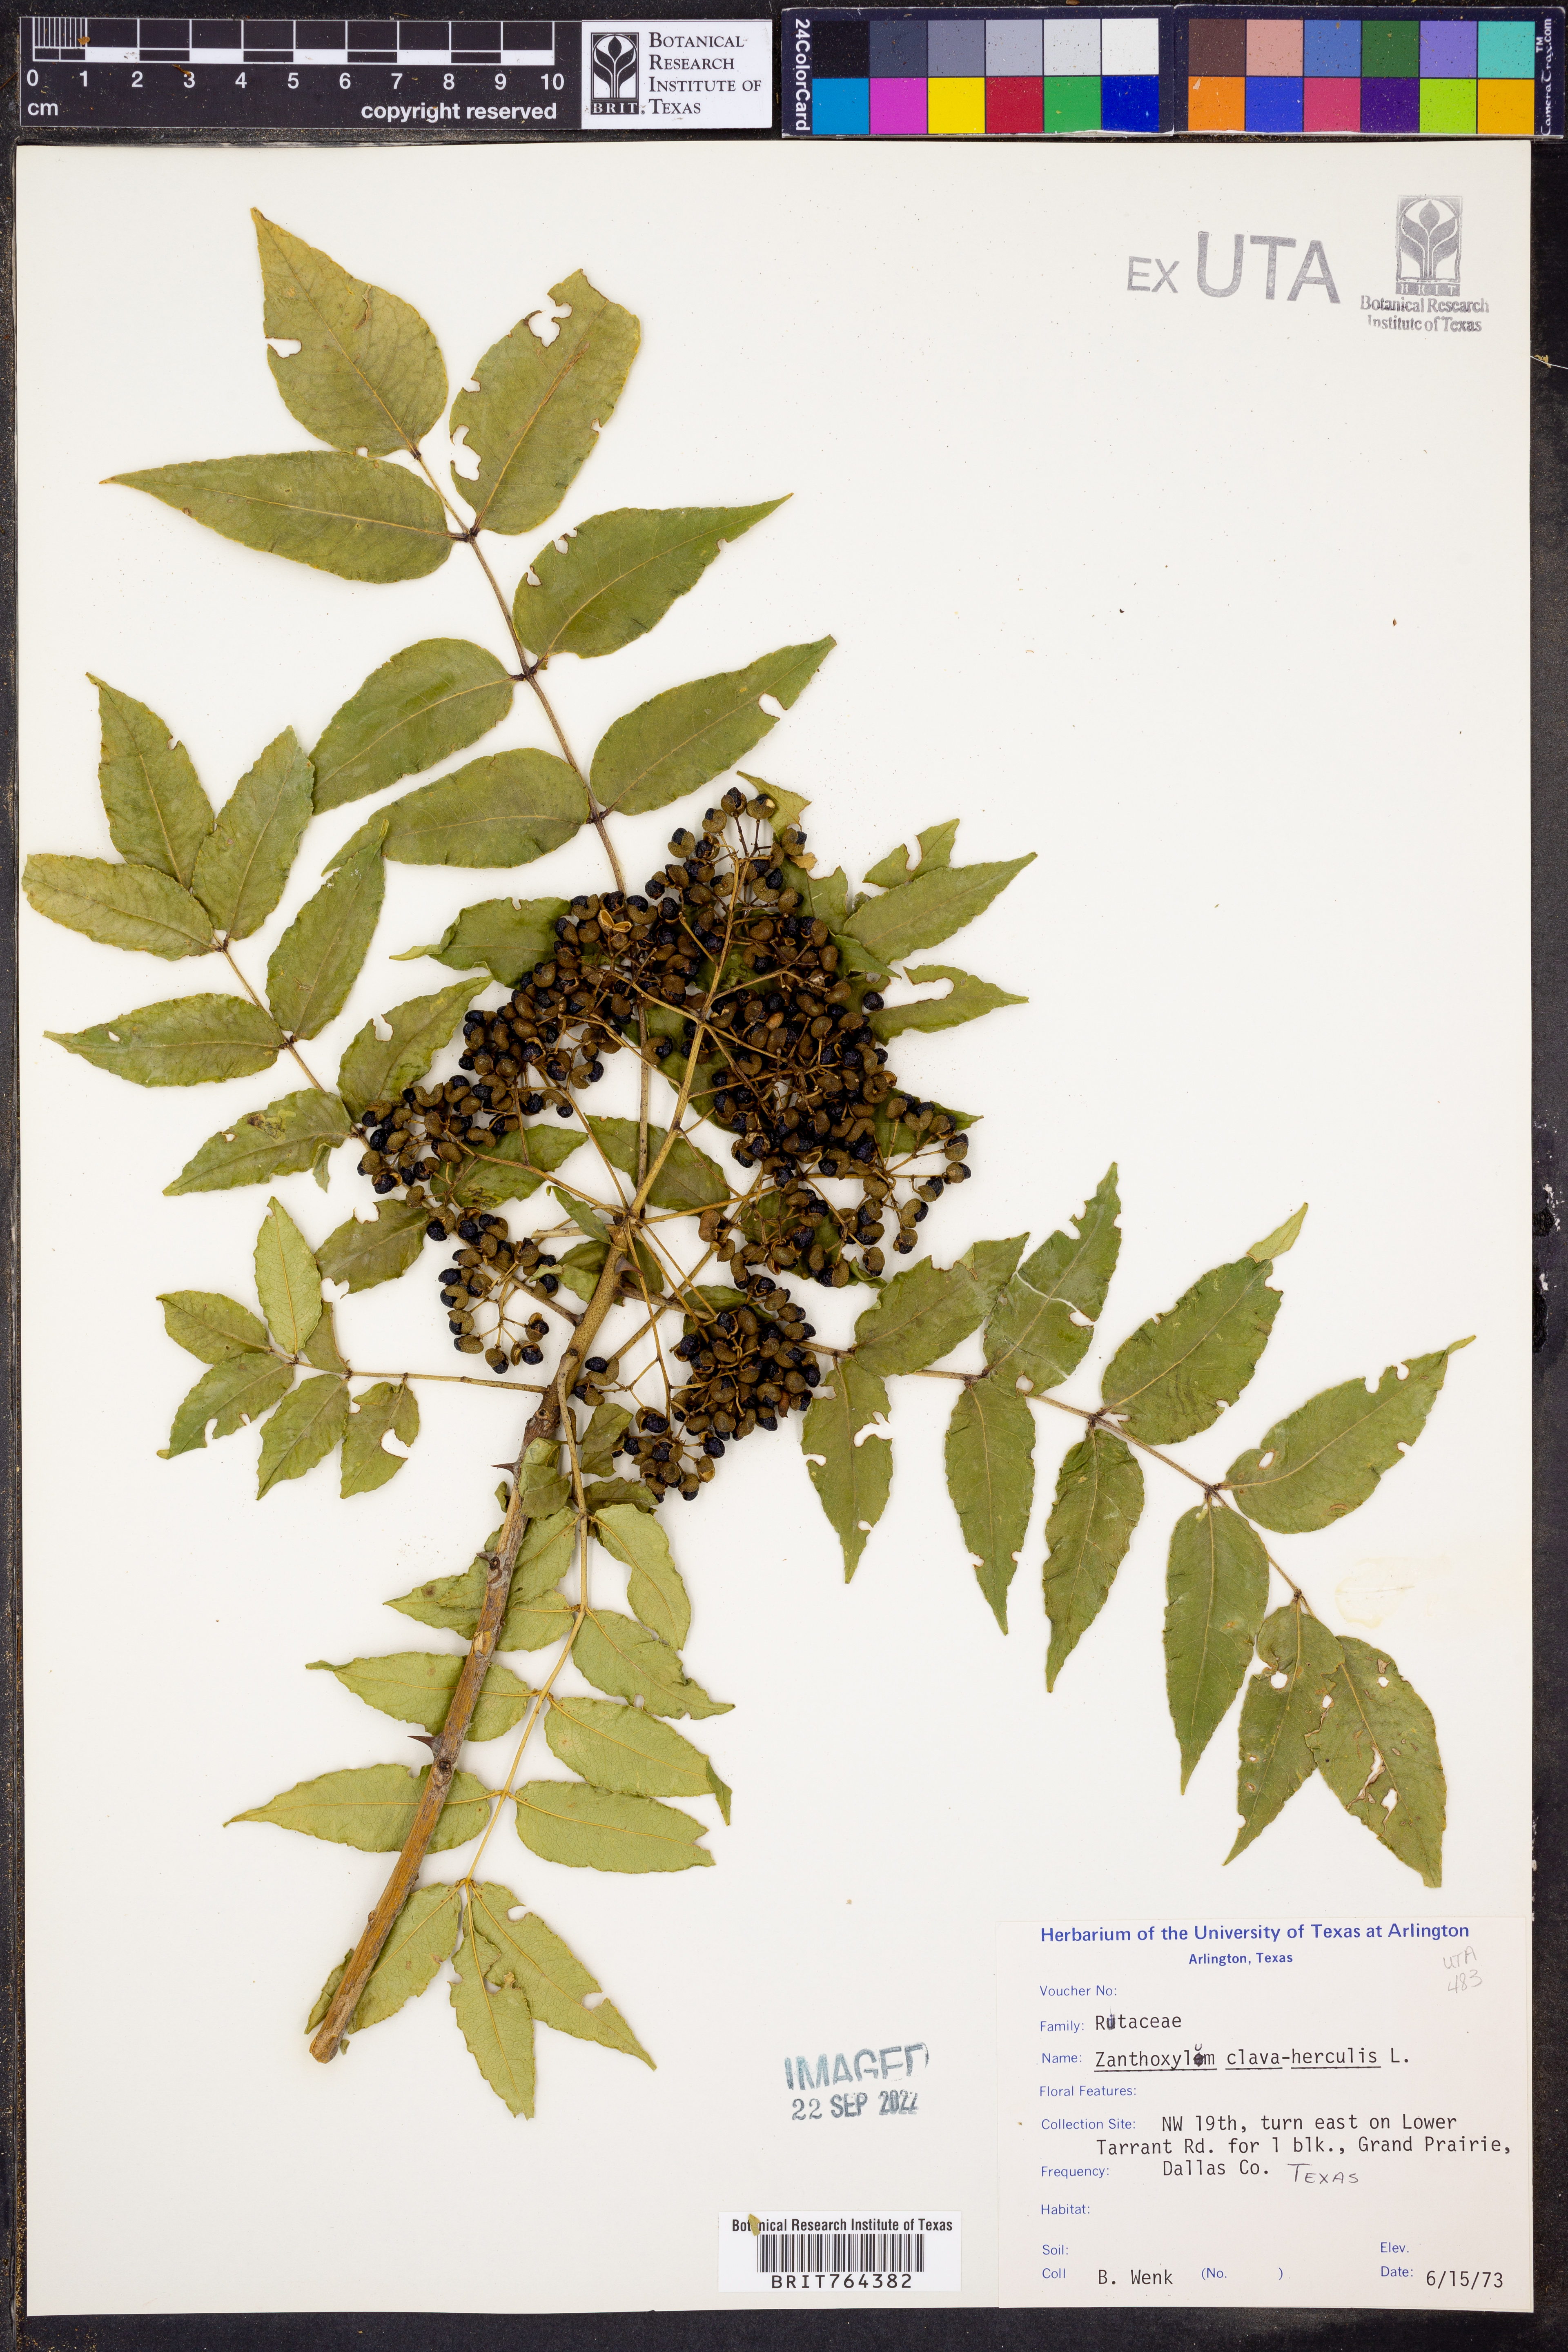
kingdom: Plantae
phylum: Tracheophyta
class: Magnoliopsida
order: Sapindales
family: Rutaceae
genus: Zanthoxylum
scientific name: Zanthoxylum avicennae
